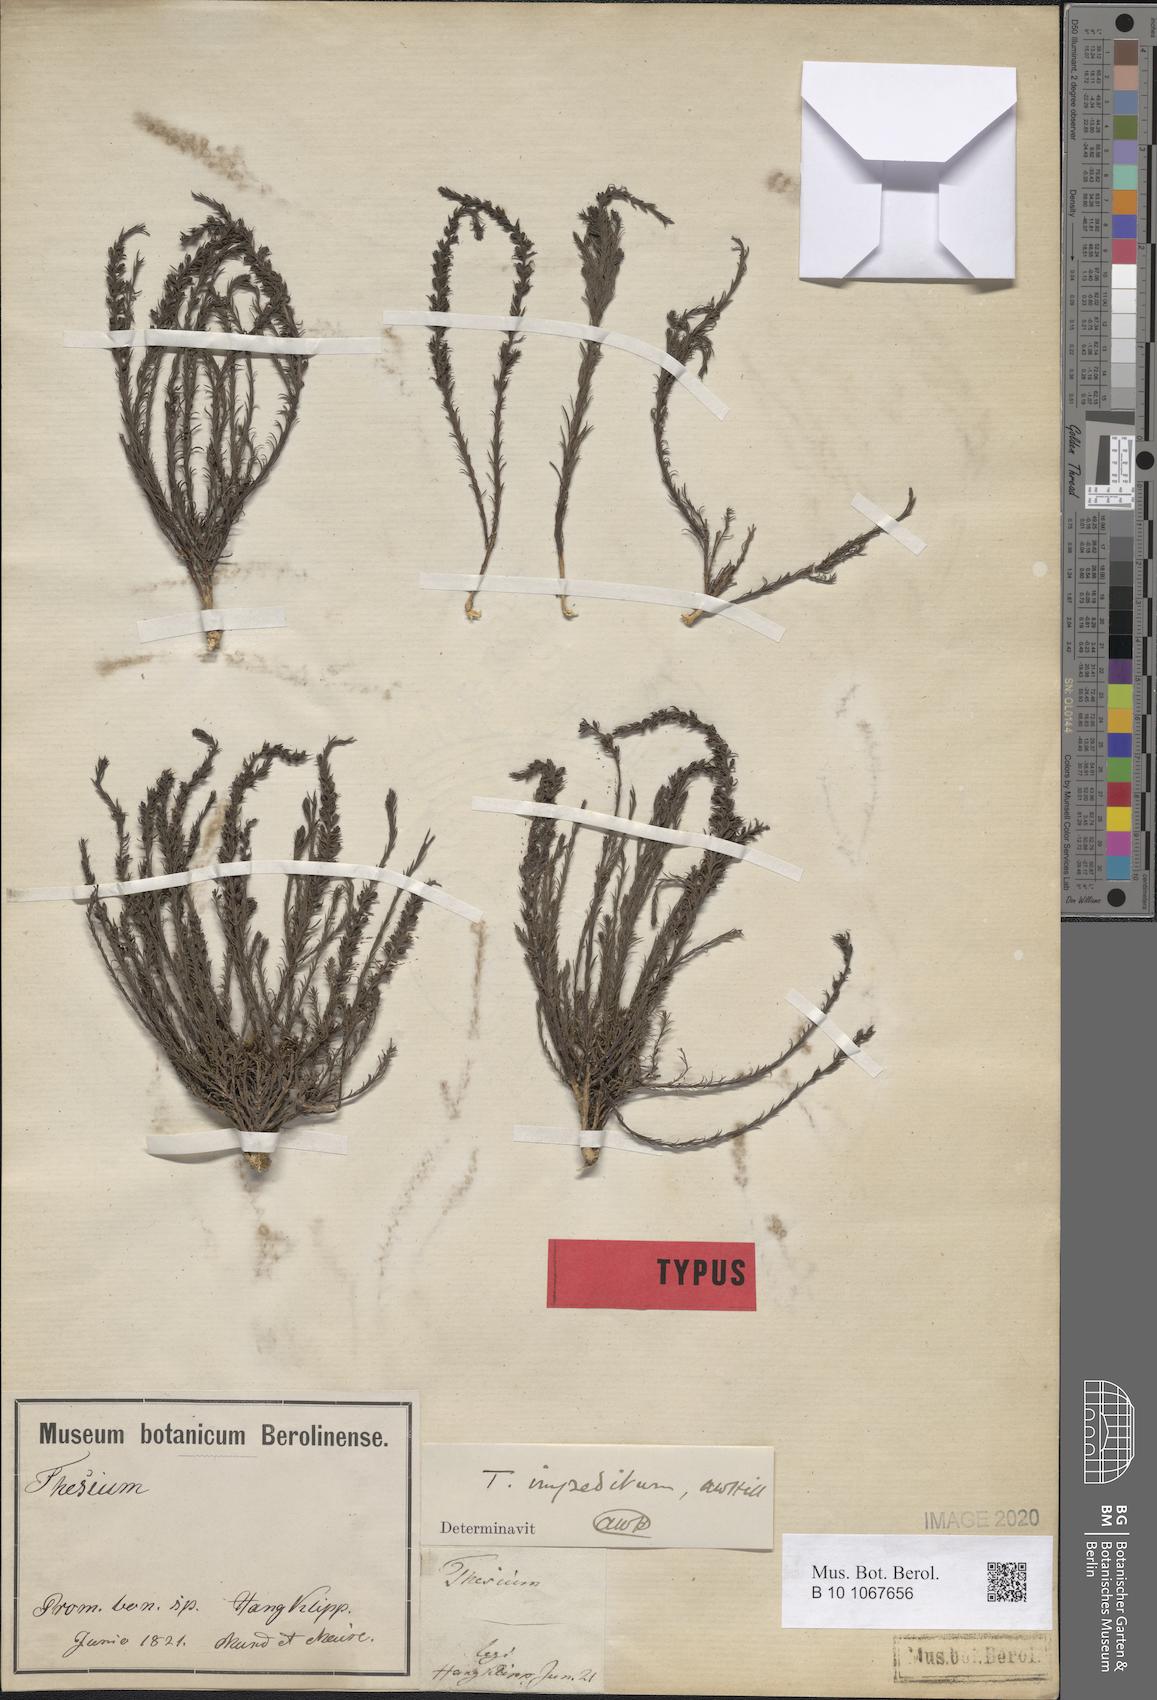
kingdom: Plantae
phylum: Tracheophyta
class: Magnoliopsida
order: Santalales
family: Thesiaceae
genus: Thesium
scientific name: Thesium impeditum
